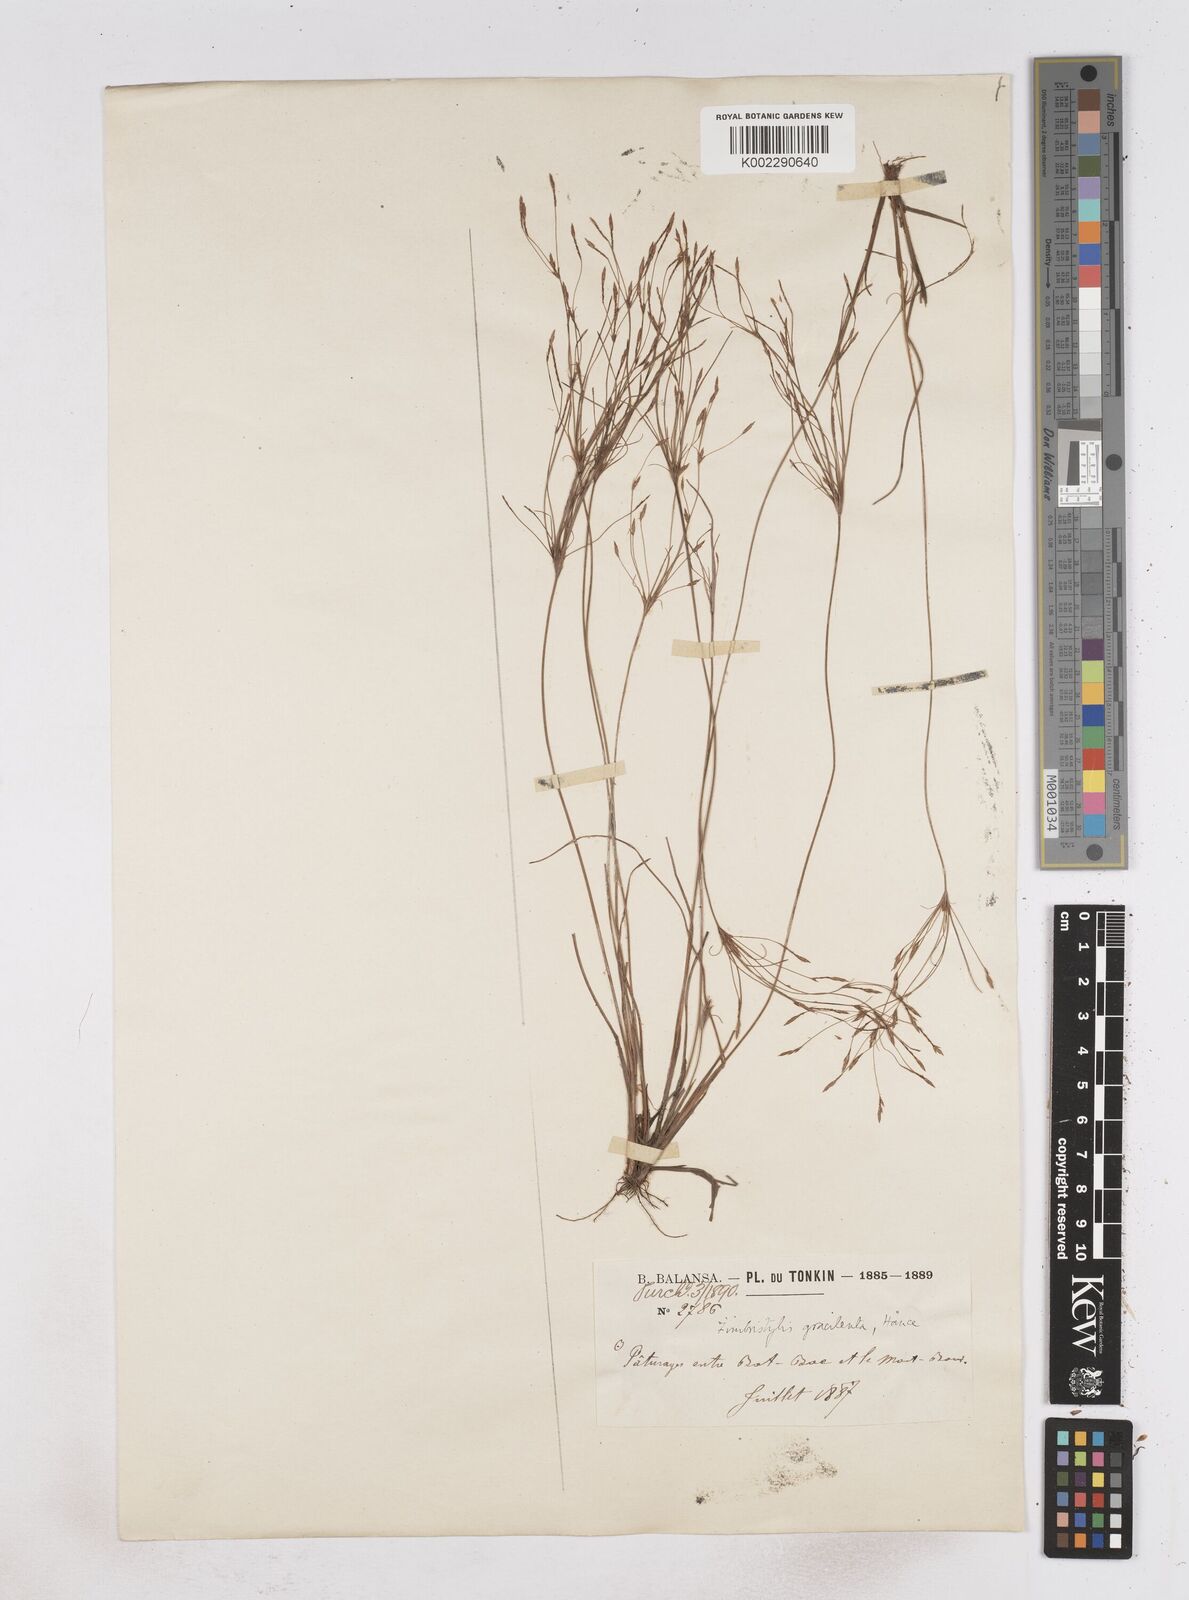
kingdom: Plantae
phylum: Tracheophyta
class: Liliopsida
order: Poales
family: Cyperaceae
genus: Fimbristylis
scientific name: Fimbristylis gracilenta
